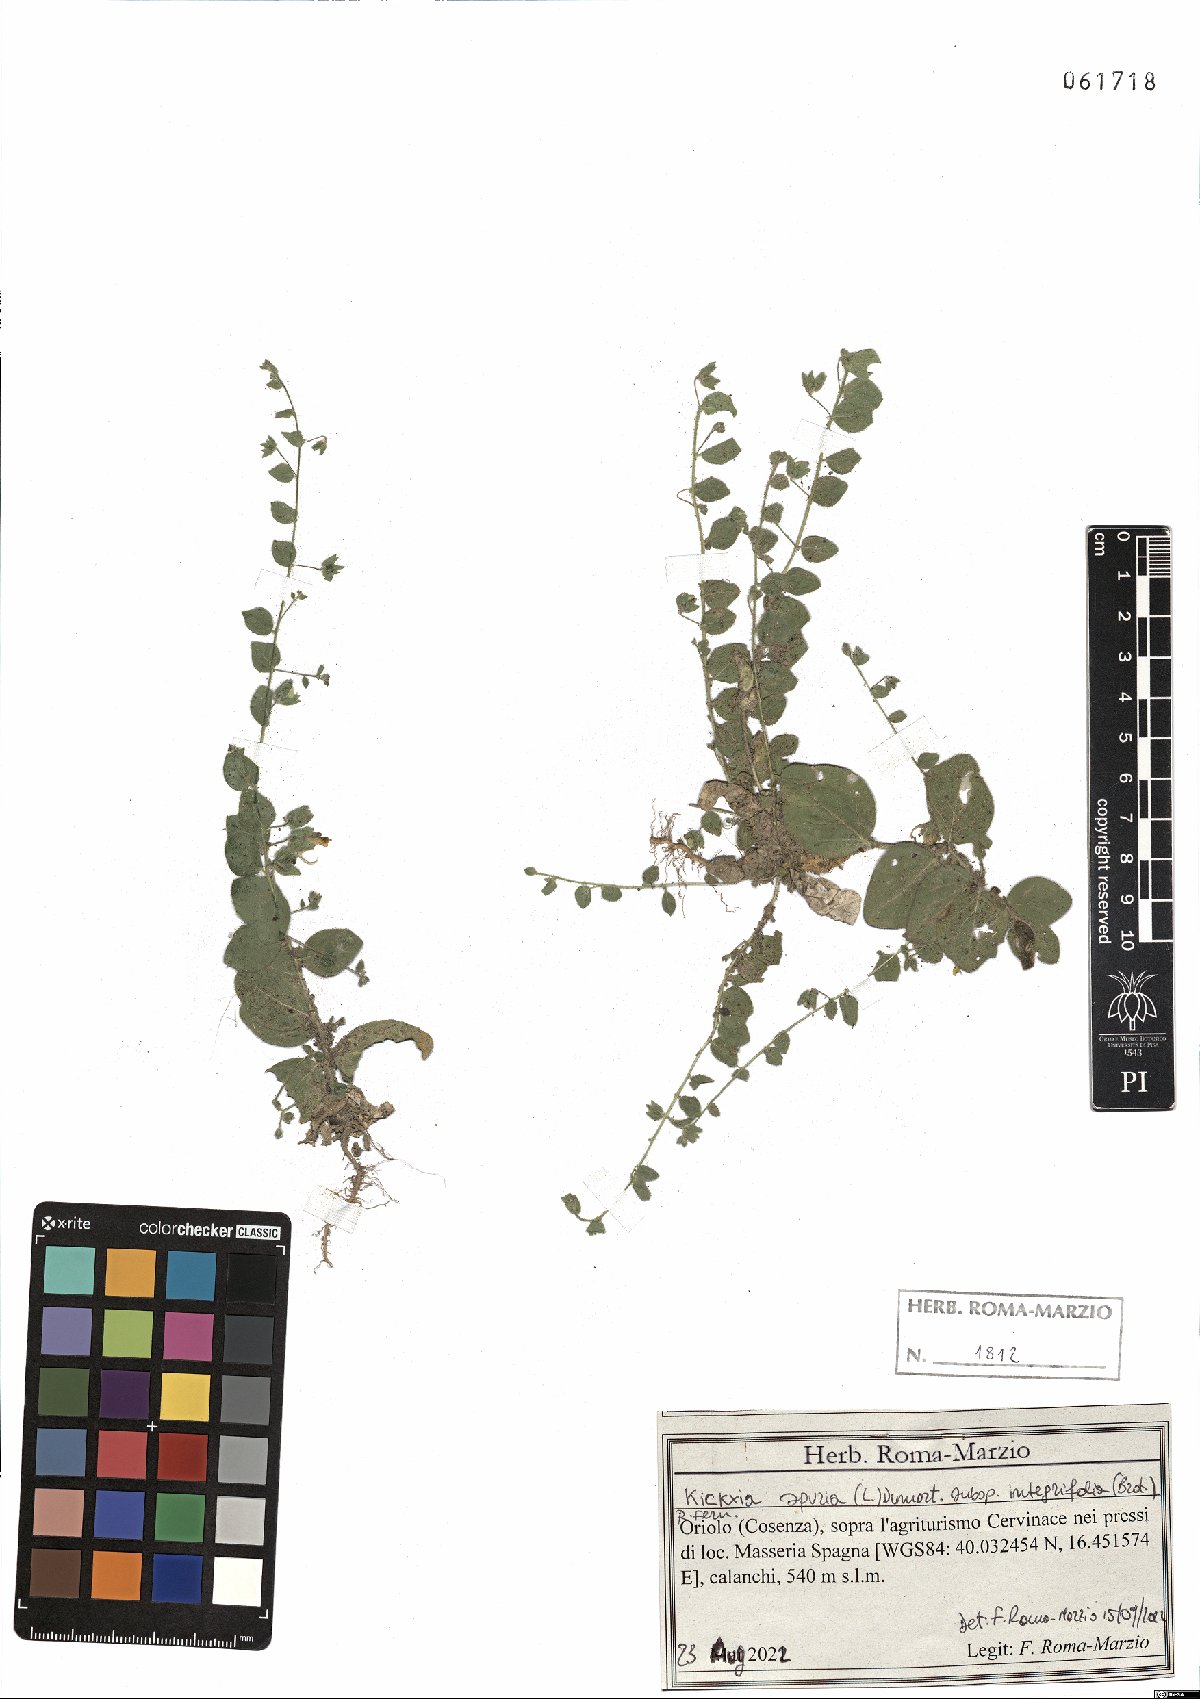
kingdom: Plantae
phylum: Tracheophyta
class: Magnoliopsida
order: Lamiales
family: Plantaginaceae
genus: Kickxia
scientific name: Kickxia spuria
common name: Round-leaved fluellen
